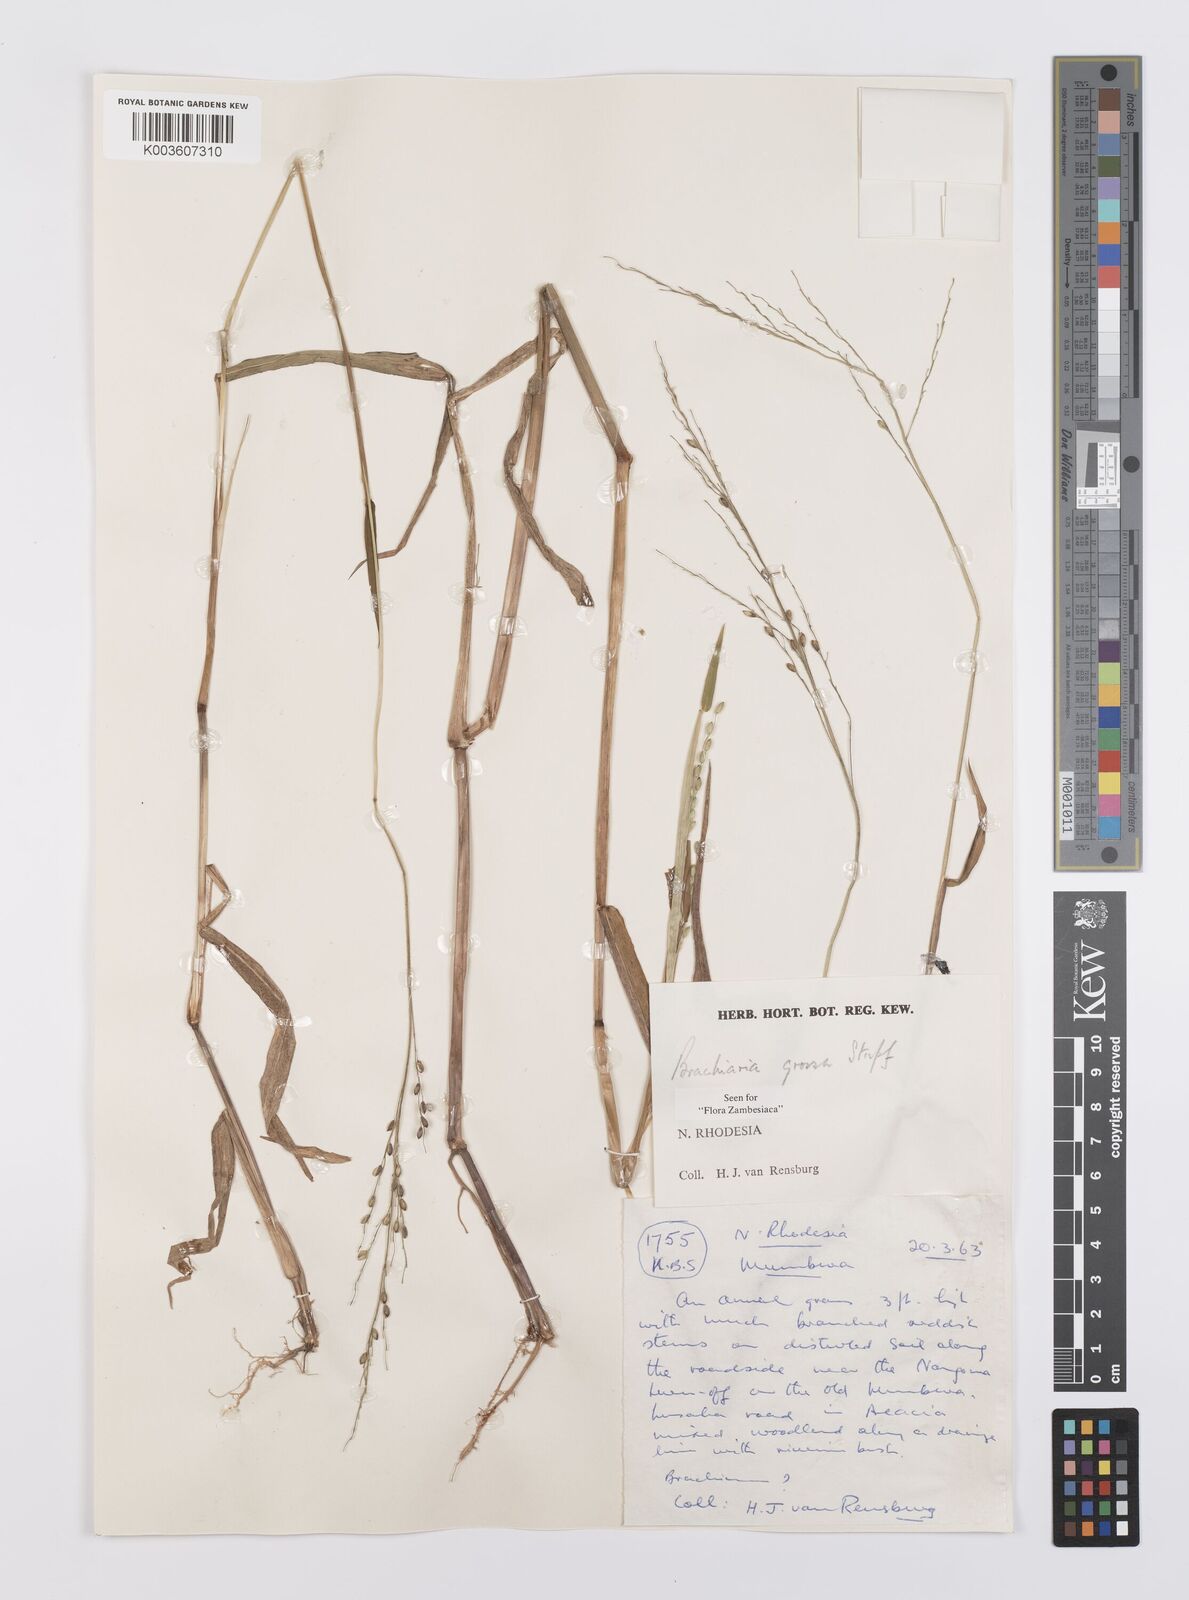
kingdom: Plantae
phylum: Tracheophyta
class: Liliopsida
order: Poales
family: Poaceae
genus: Urochloa
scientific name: Urochloa Brachiaria grossa
